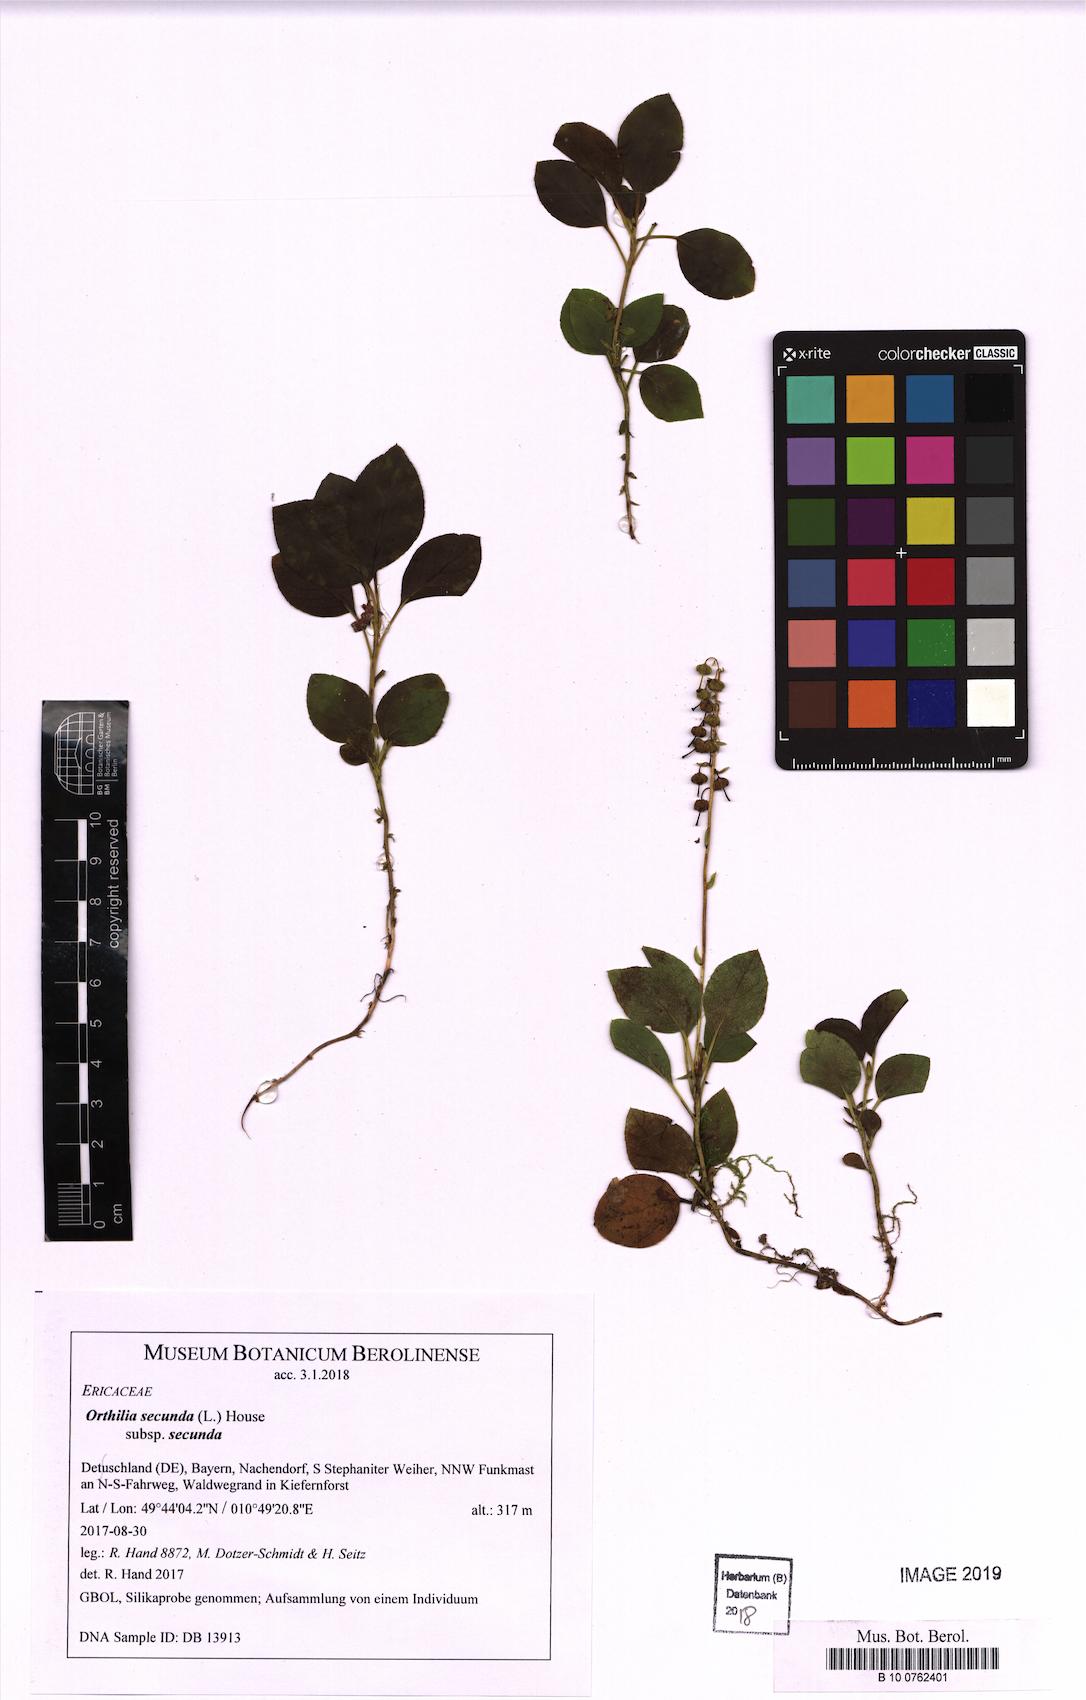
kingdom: Plantae
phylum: Tracheophyta
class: Magnoliopsida
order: Ericales
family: Ericaceae
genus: Orthilia
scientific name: Orthilia secunda
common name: One-sided orthilia
